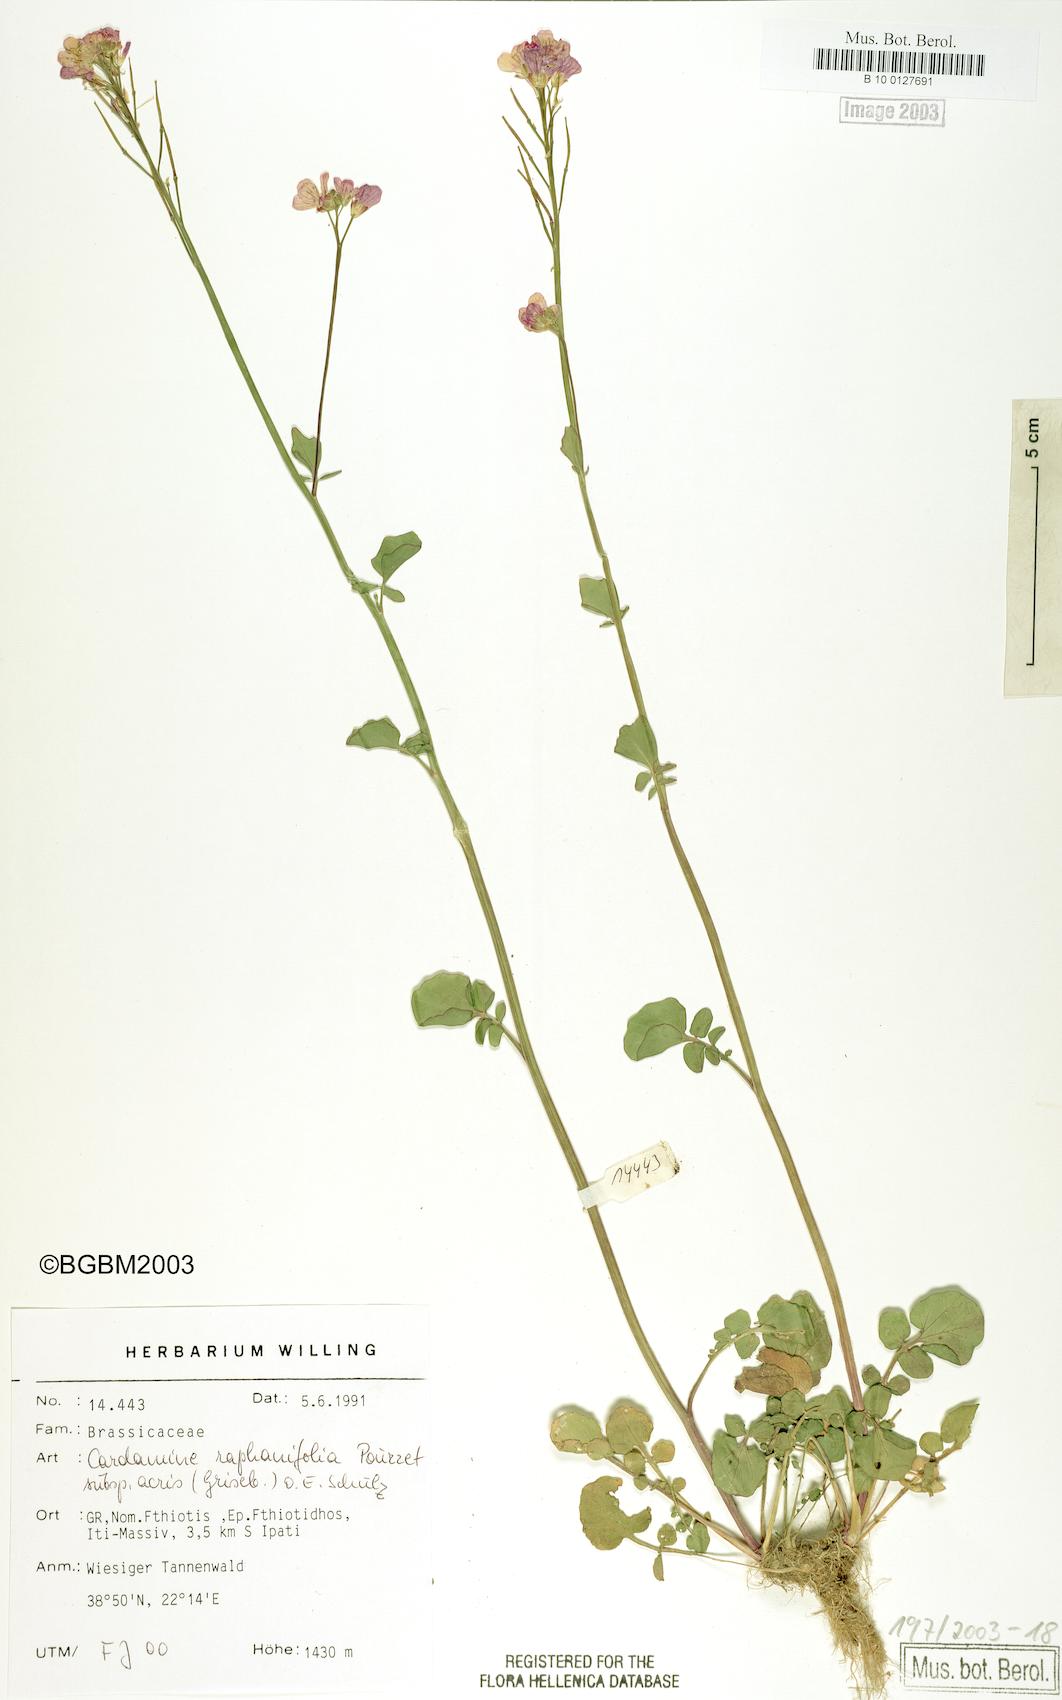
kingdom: Plantae
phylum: Tracheophyta
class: Magnoliopsida
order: Brassicales
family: Brassicaceae
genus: Cardamine
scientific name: Cardamine raphanifolia
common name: Greater cuckooflower
